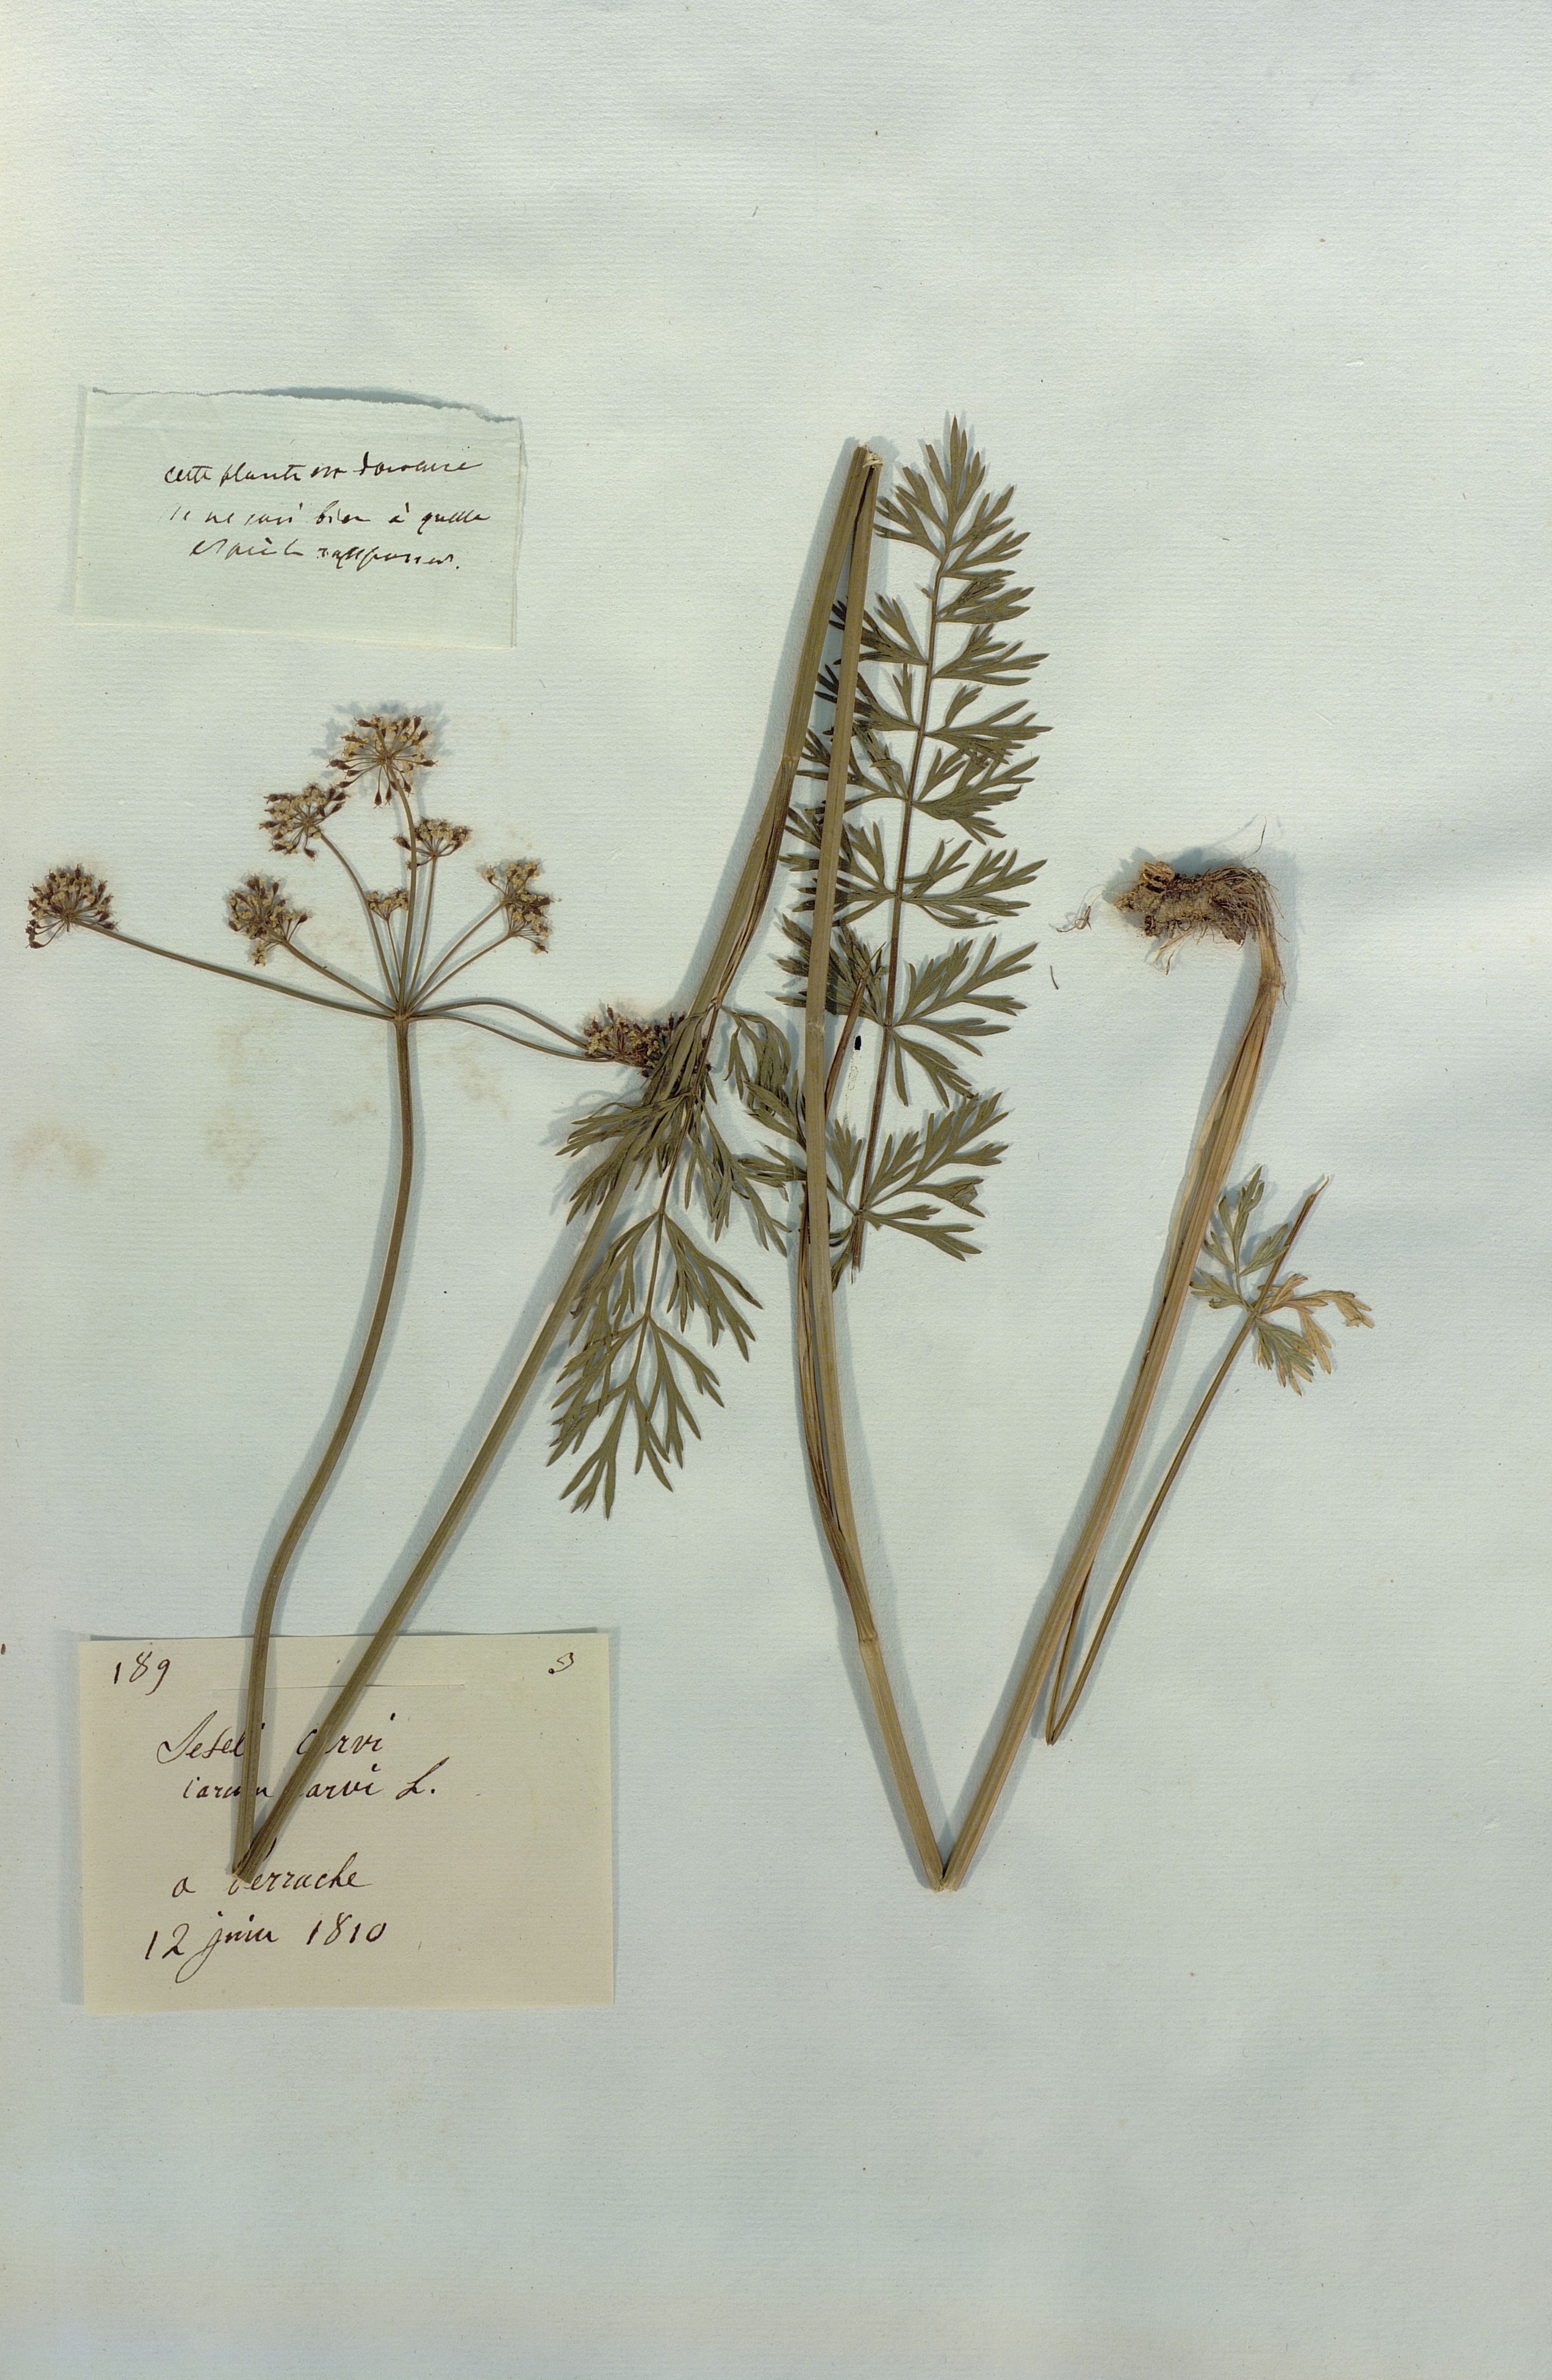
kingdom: Plantae
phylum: Tracheophyta
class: Magnoliopsida
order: Apiales
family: Apiaceae
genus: Seseli
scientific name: Seseli carvi
